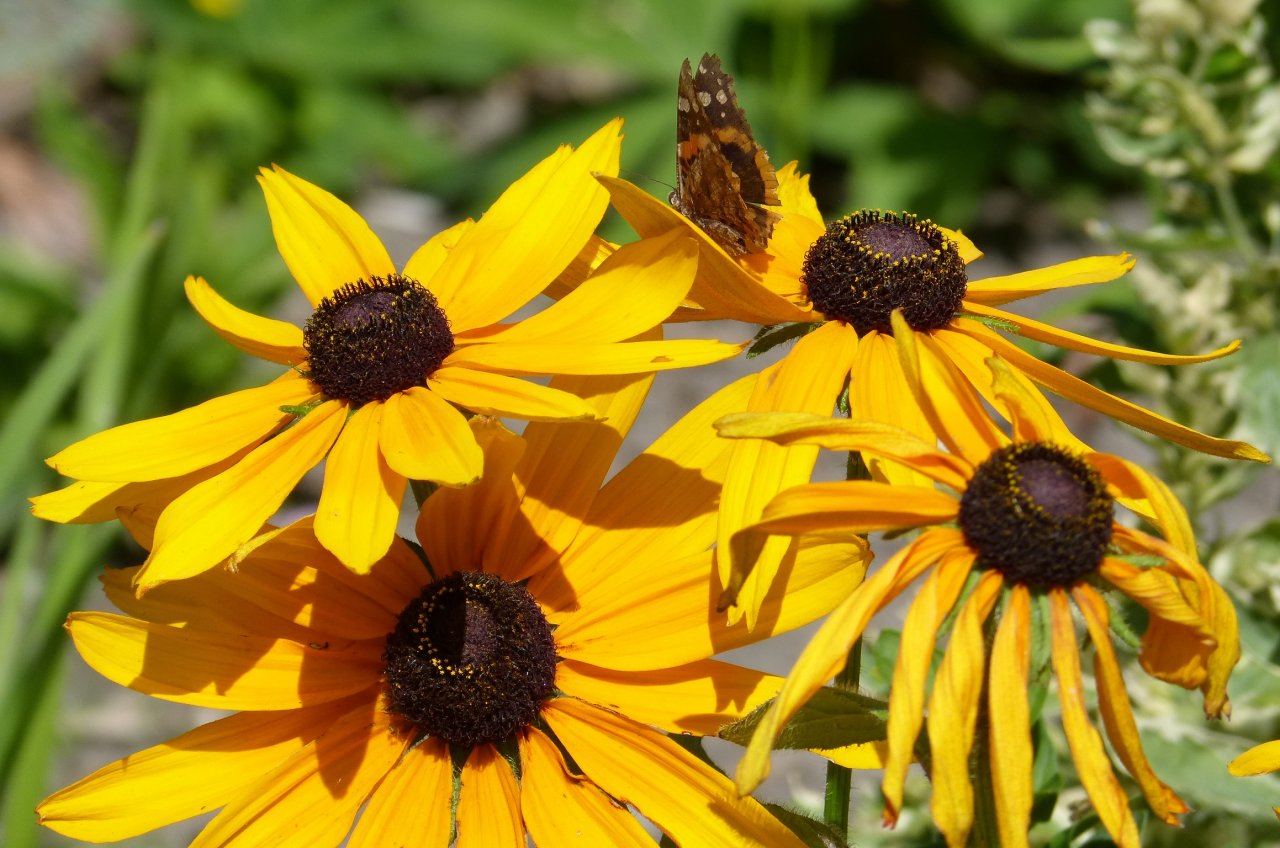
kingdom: Animalia
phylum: Arthropoda
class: Insecta
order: Lepidoptera
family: Nymphalidae
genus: Vanessa
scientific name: Vanessa atalanta
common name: Red Admiral
